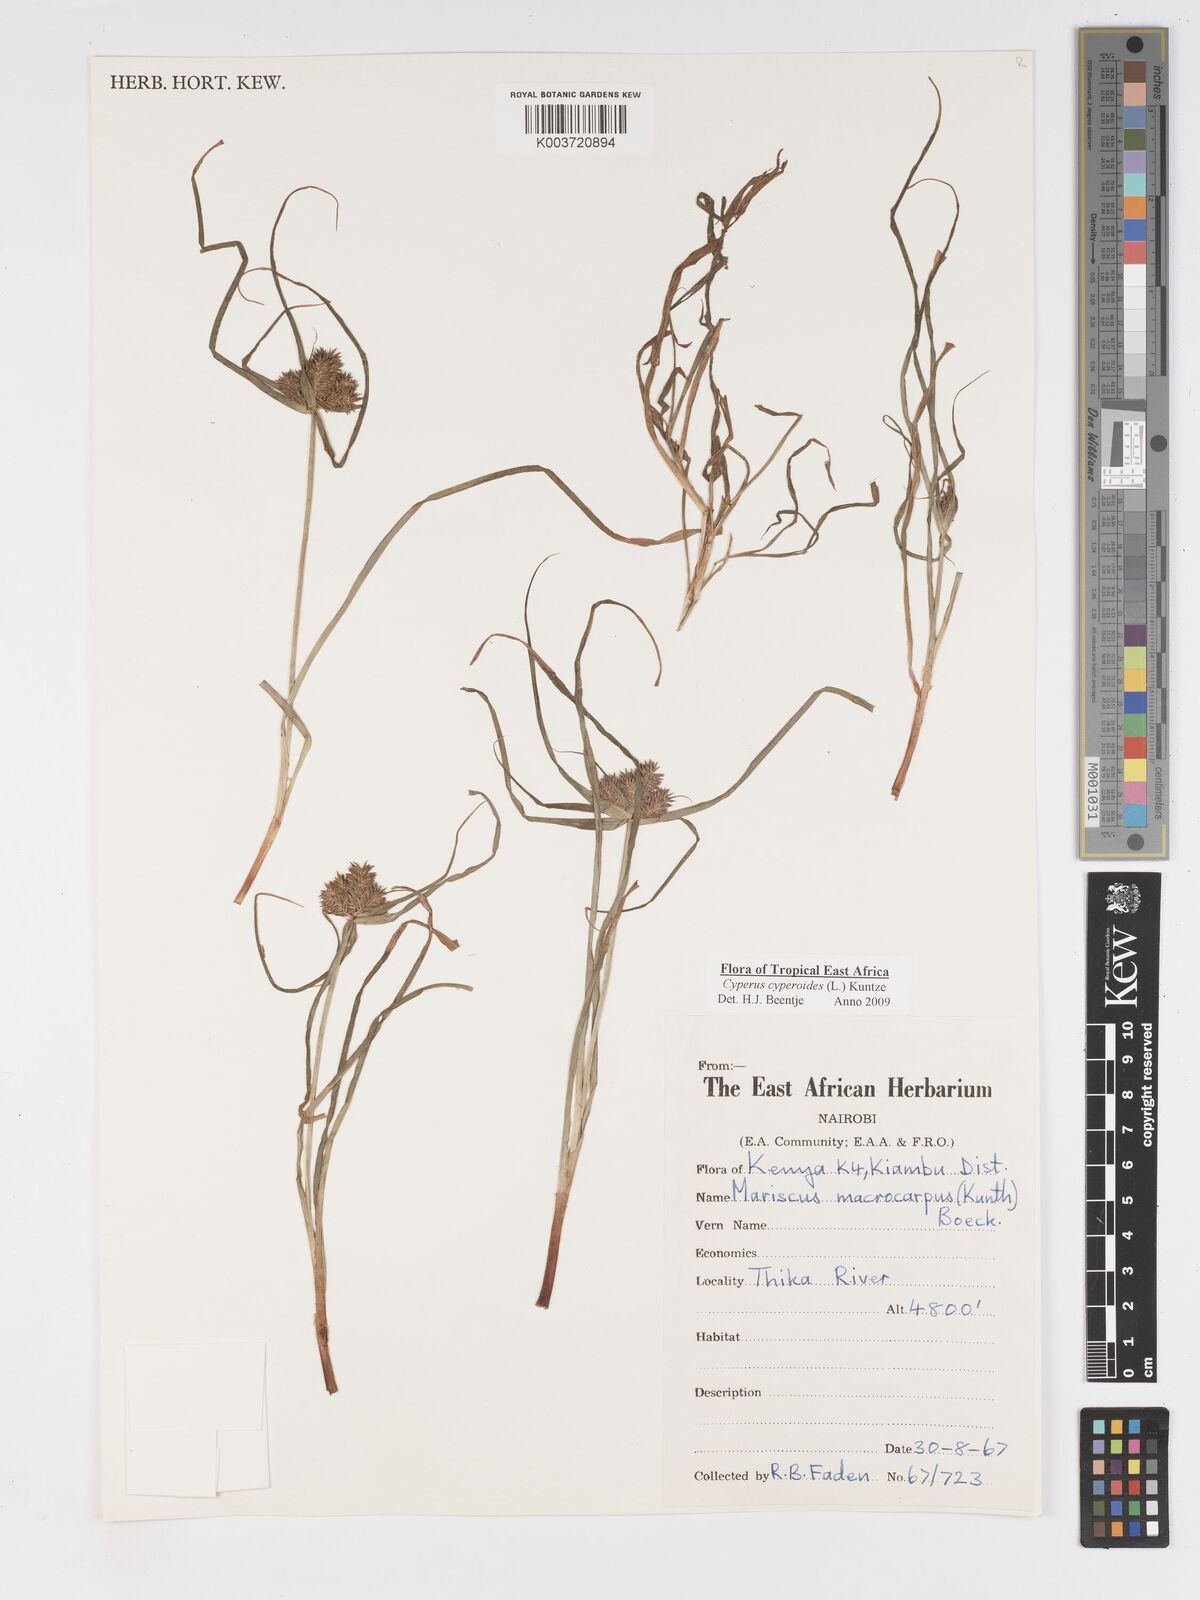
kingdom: Plantae
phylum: Tracheophyta
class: Liliopsida
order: Poales
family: Cyperaceae
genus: Cyperus
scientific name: Cyperus macrocarpus
